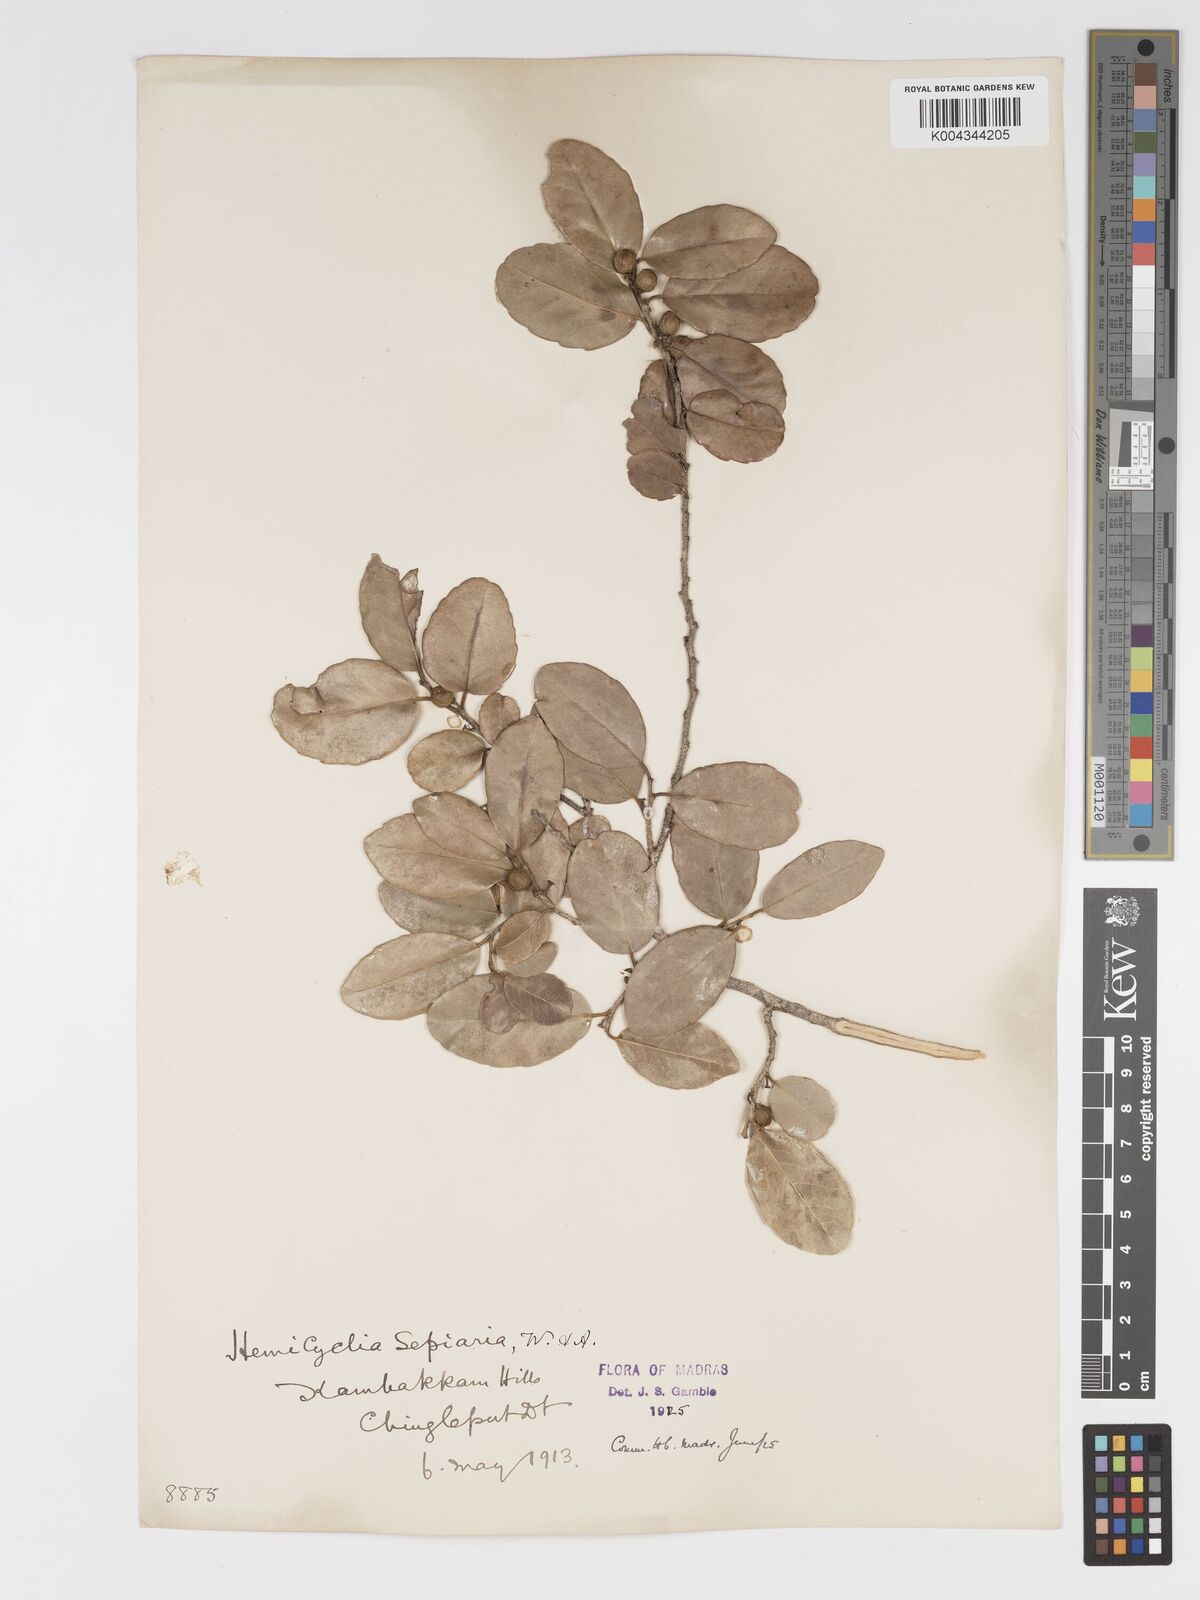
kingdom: Plantae
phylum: Tracheophyta
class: Magnoliopsida
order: Malpighiales
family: Putranjivaceae
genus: Drypetes
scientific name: Drypetes sepiaria
